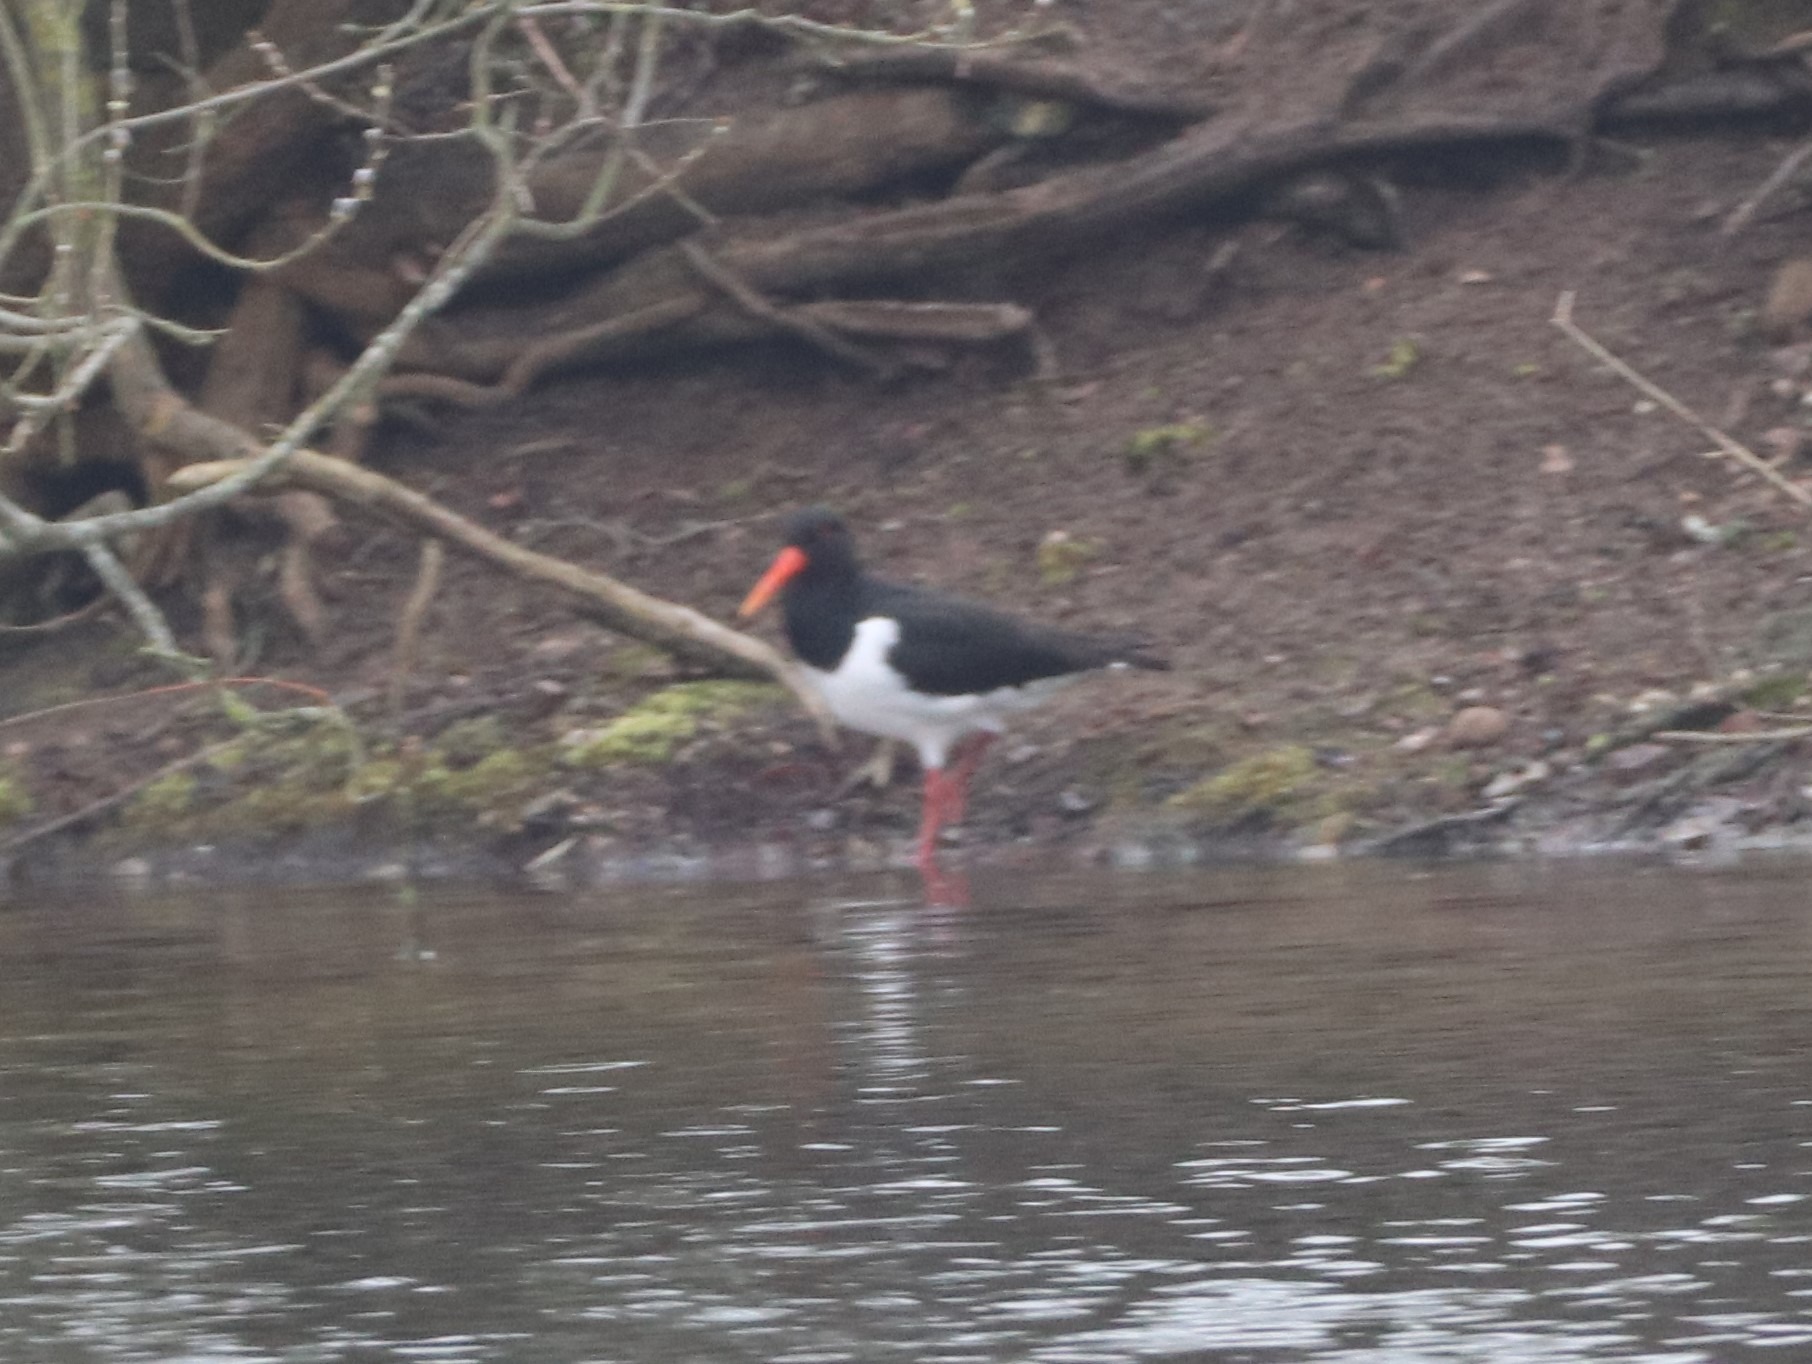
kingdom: Animalia
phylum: Chordata
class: Aves
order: Charadriiformes
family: Haematopodidae
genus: Haematopus
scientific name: Haematopus ostralegus
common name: Strandskade
